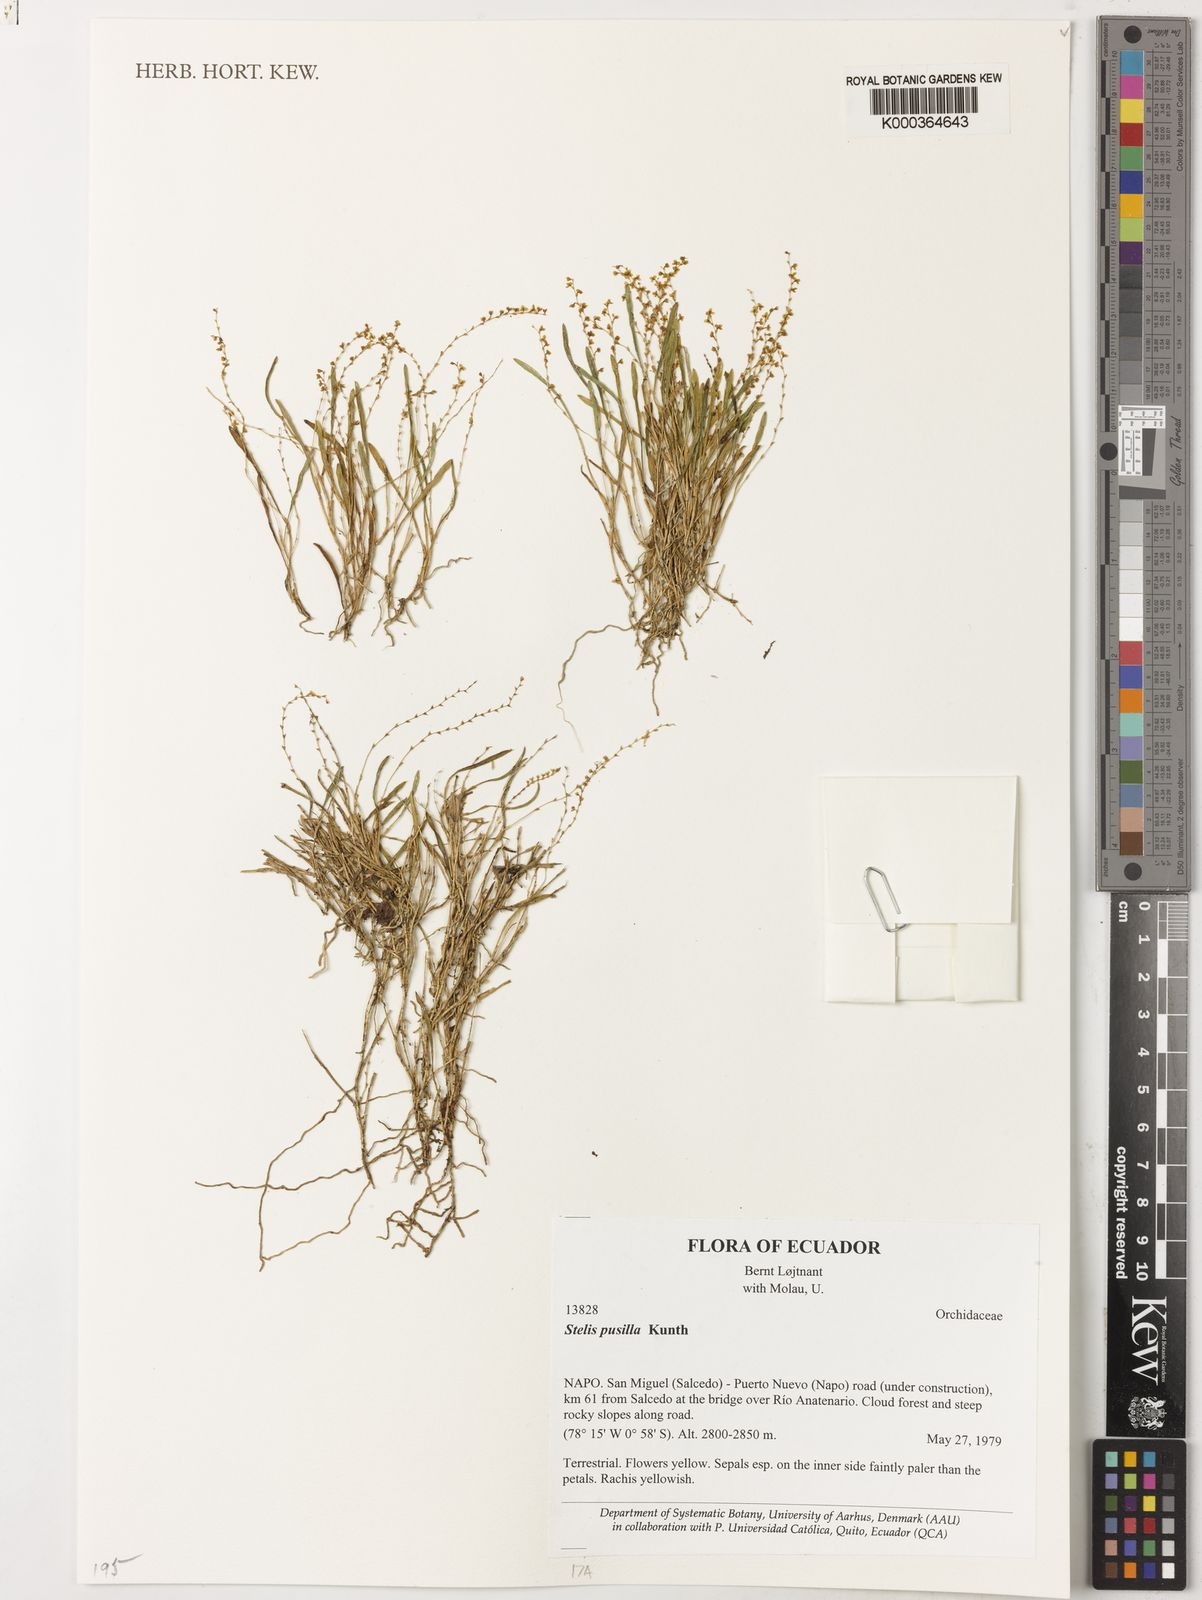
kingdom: Plantae
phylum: Tracheophyta
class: Liliopsida
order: Asparagales
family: Orchidaceae
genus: Stelis
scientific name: Stelis pusilla
